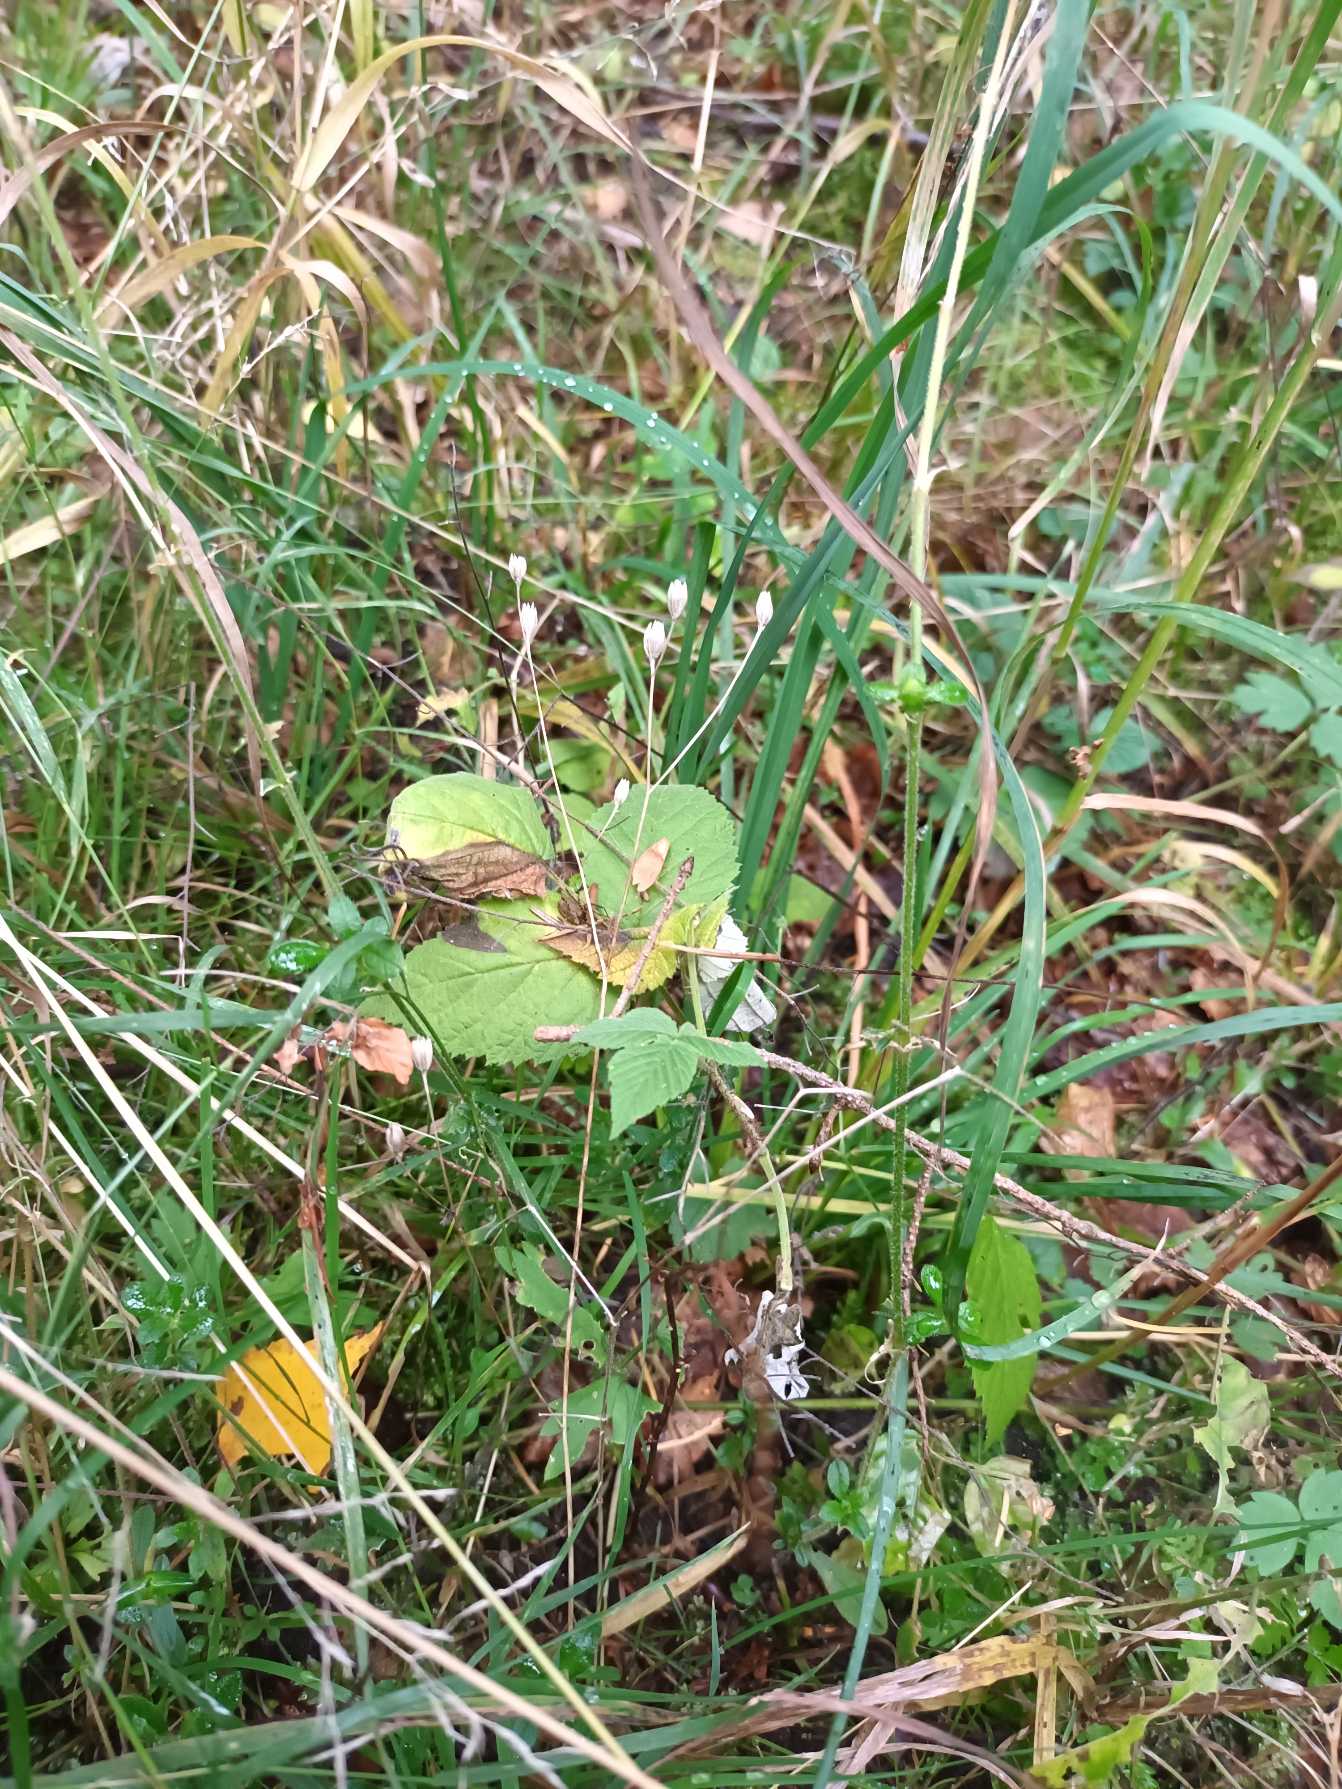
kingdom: Plantae
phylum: Tracheophyta
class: Magnoliopsida
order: Asterales
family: Asteraceae
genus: Lapsana
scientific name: Lapsana communis
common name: Haremad
